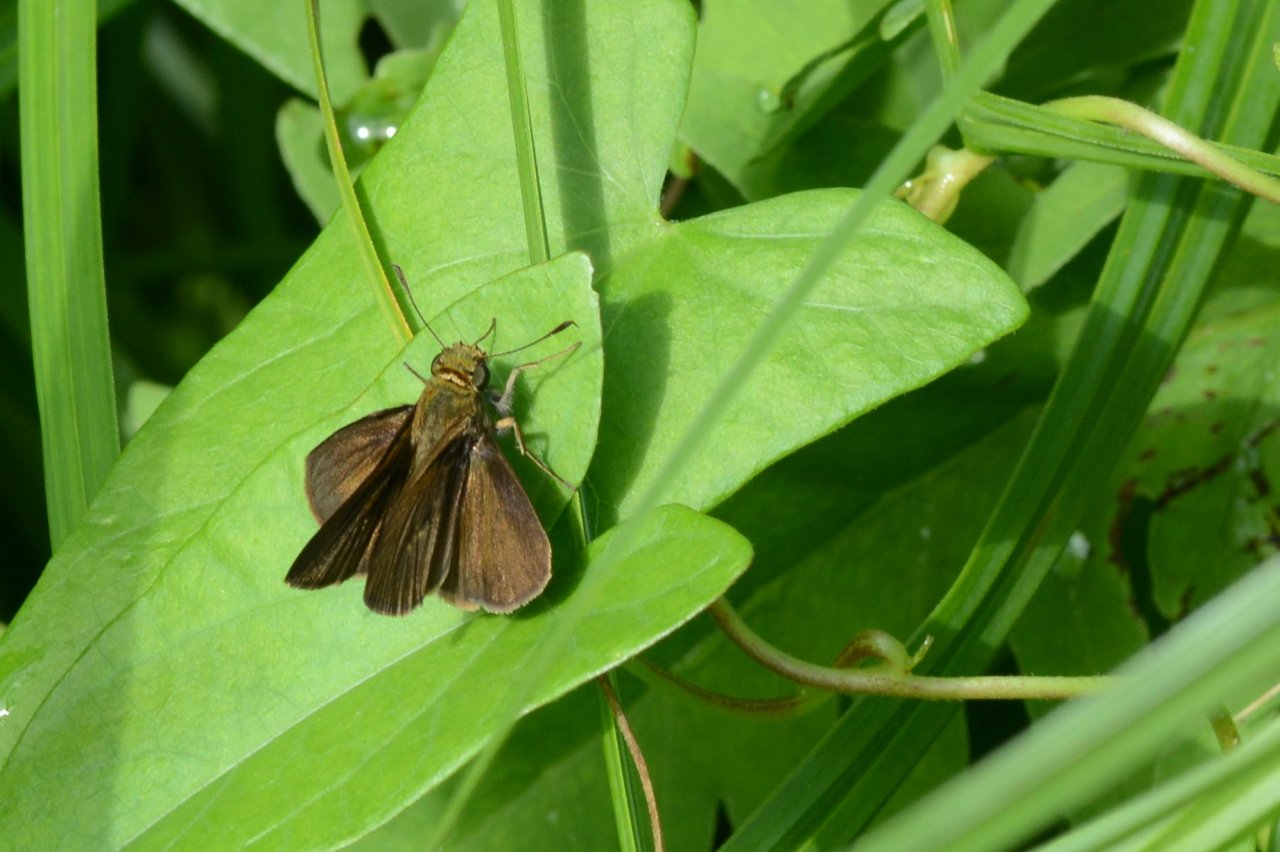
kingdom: Animalia
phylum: Arthropoda
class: Insecta
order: Lepidoptera
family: Hesperiidae
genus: Euphyes
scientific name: Euphyes vestris
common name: Dun Skipper
